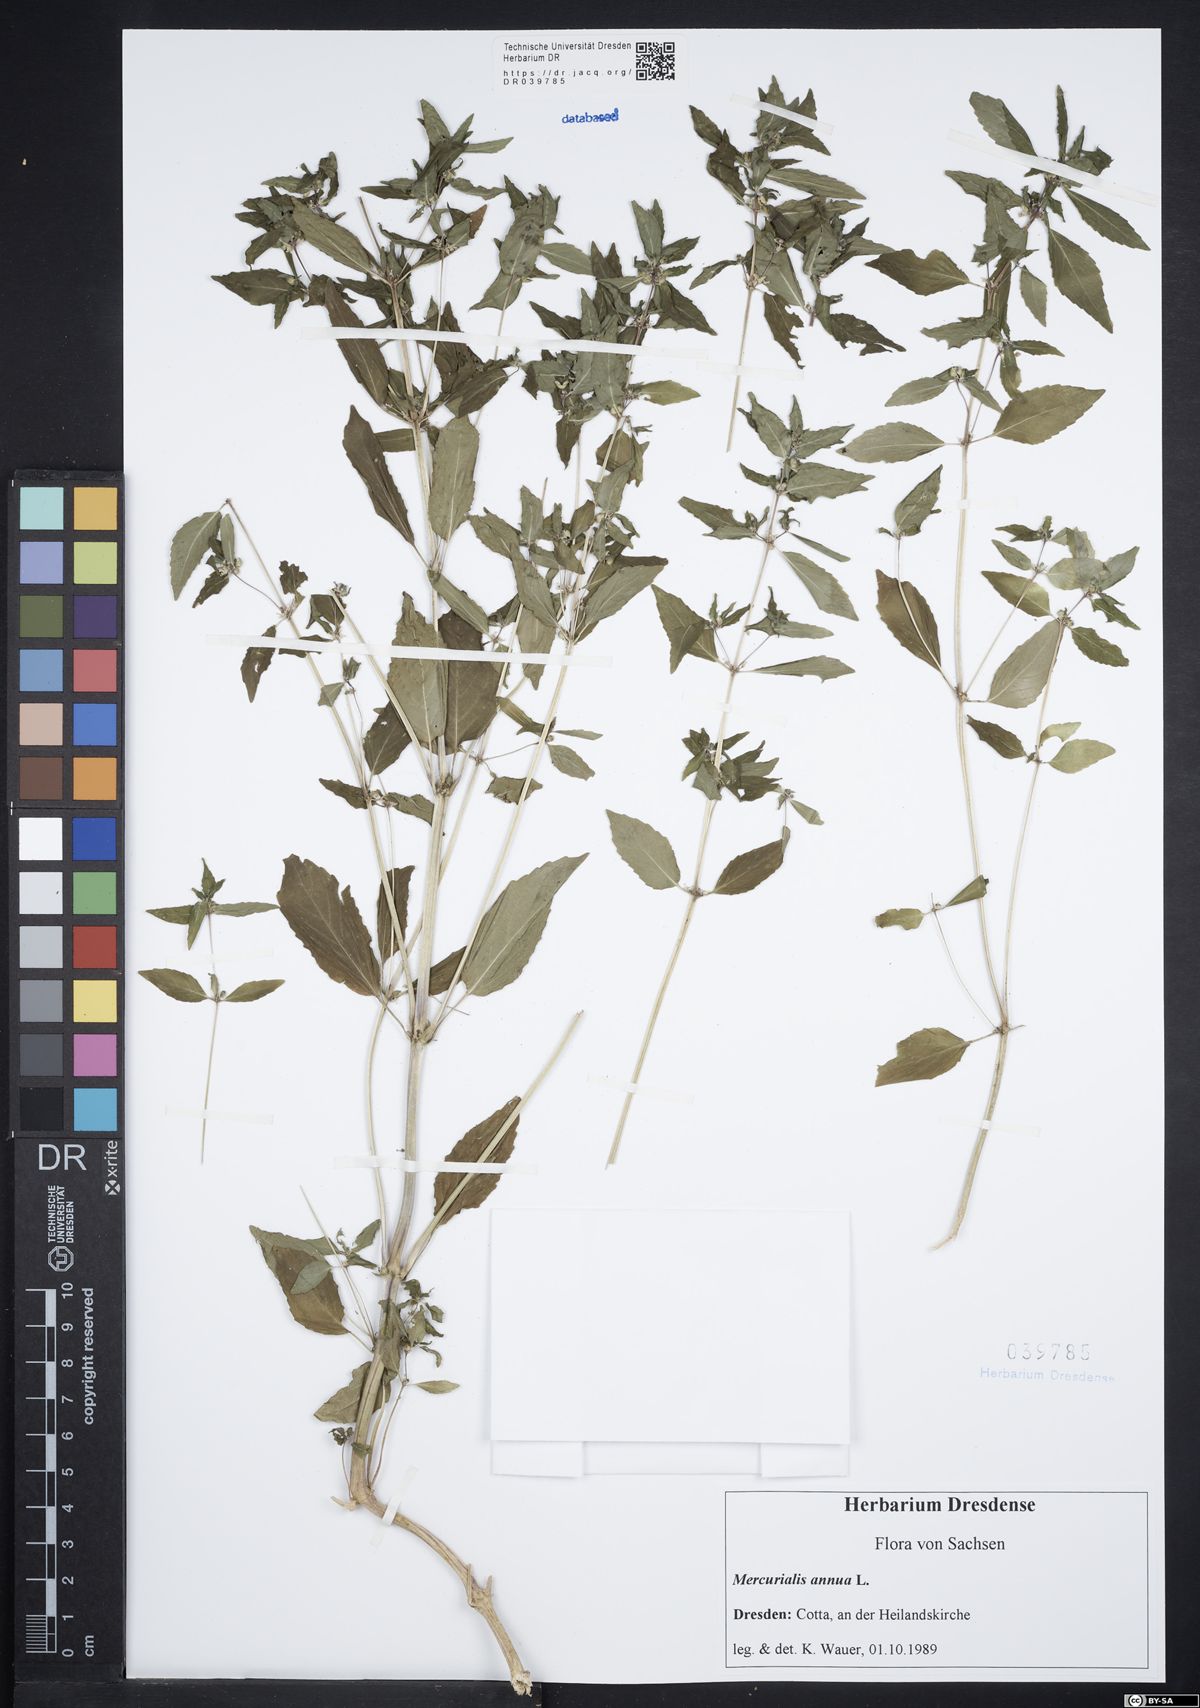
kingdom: Plantae
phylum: Tracheophyta
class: Magnoliopsida
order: Malpighiales
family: Euphorbiaceae
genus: Mercurialis
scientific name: Mercurialis annua
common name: Annual mercury
